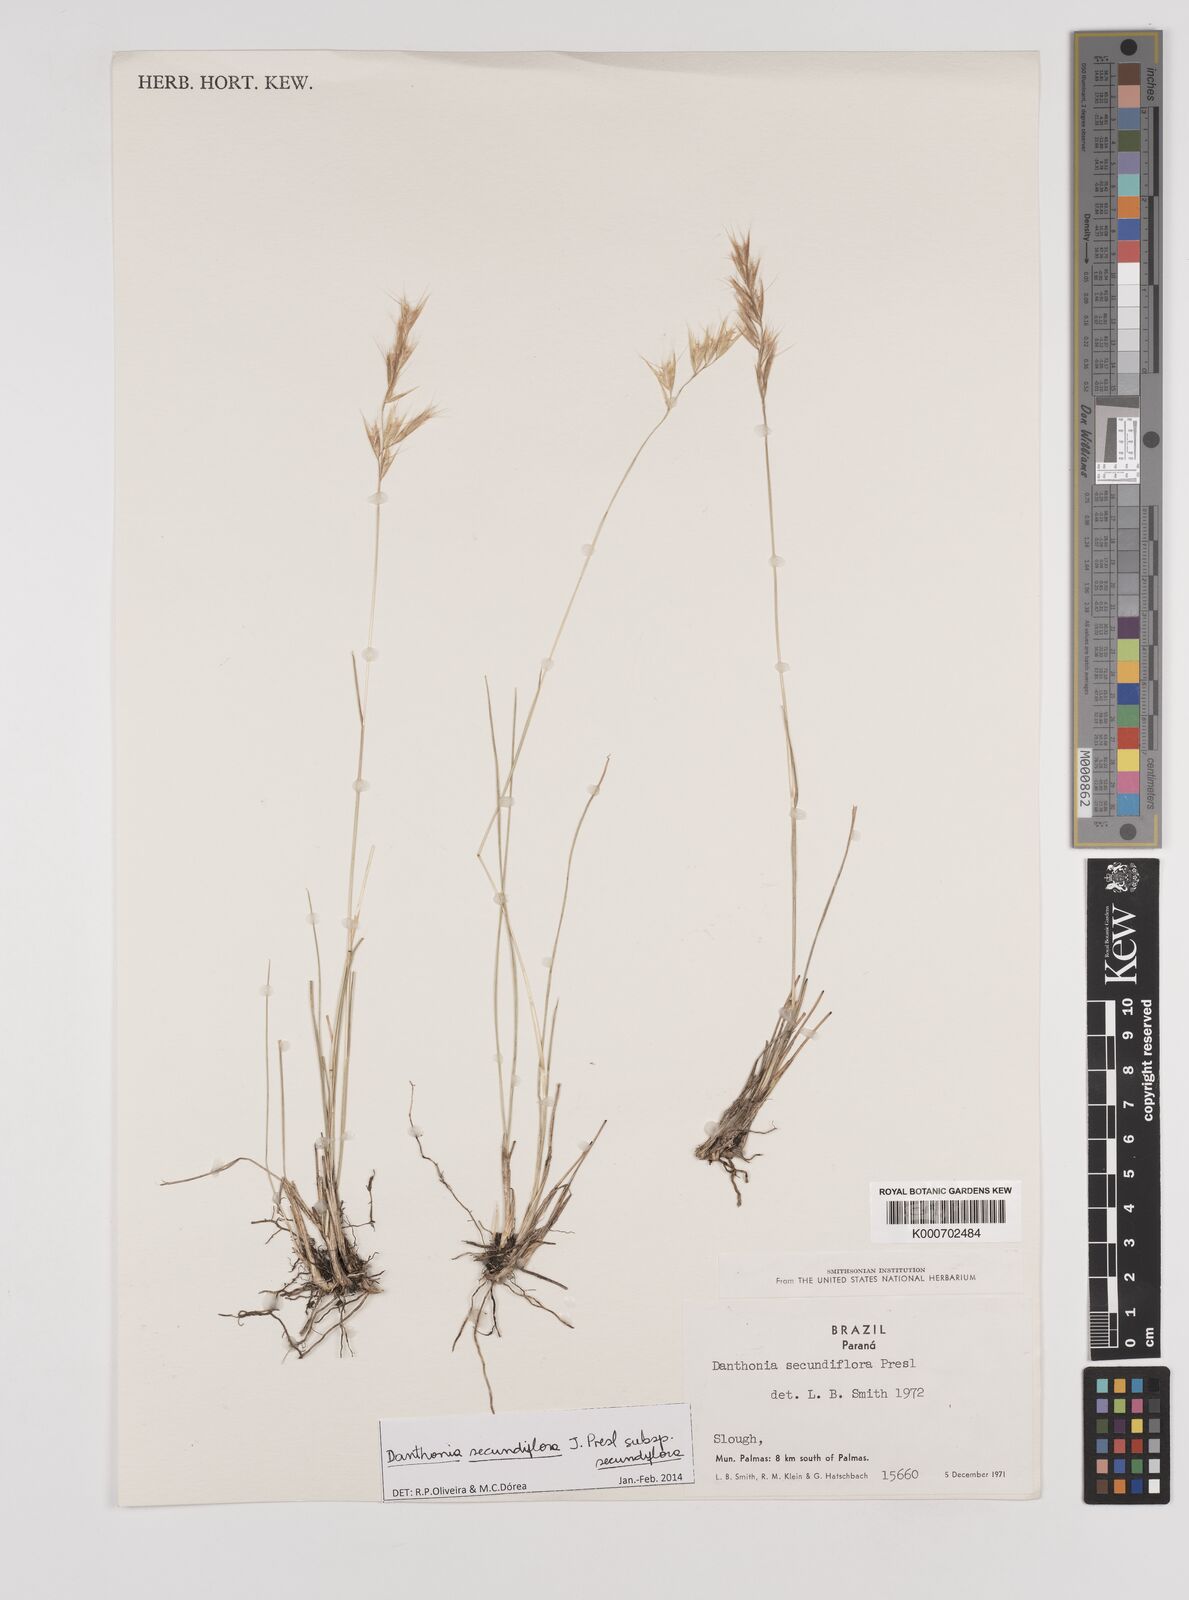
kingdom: Plantae
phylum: Tracheophyta
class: Liliopsida
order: Poales
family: Poaceae
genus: Danthonia
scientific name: Danthonia secundiflora
